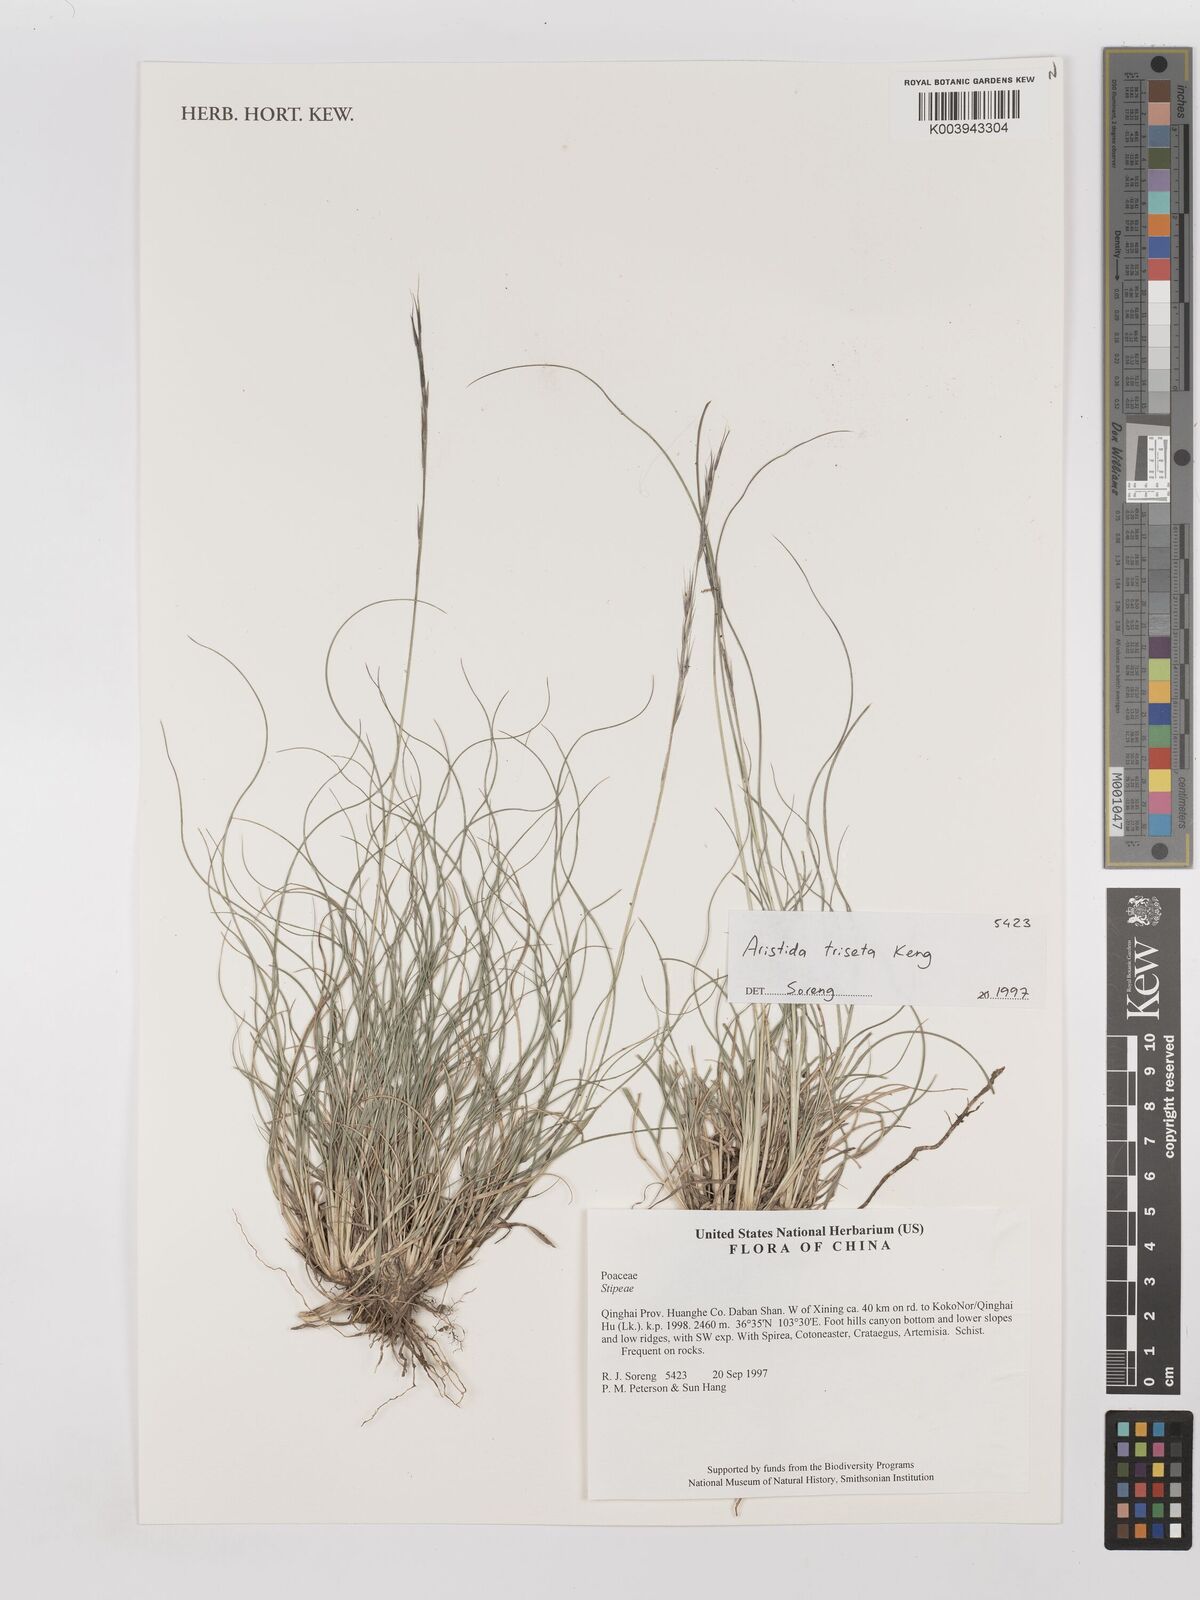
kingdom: Plantae
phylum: Tracheophyta
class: Liliopsida
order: Poales
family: Poaceae
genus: Aristida
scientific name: Aristida triseta
